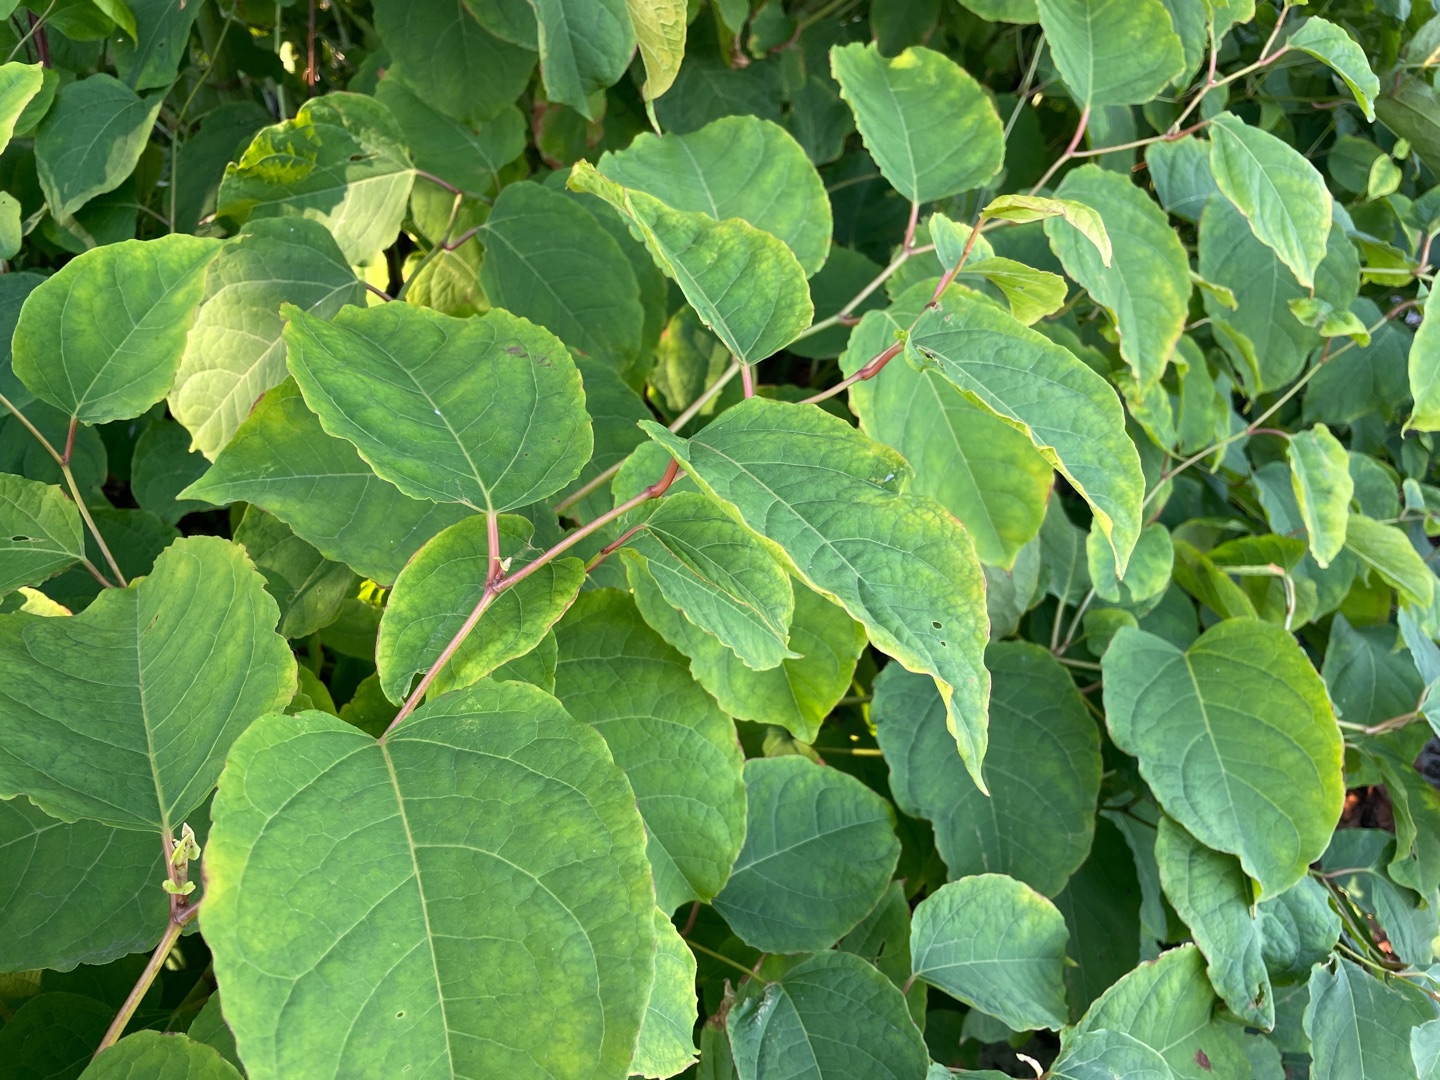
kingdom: Plantae
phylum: Tracheophyta
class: Magnoliopsida
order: Caryophyllales
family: Polygonaceae
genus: Reynoutria
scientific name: Reynoutria bohemica
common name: Hybrid-pileurt
